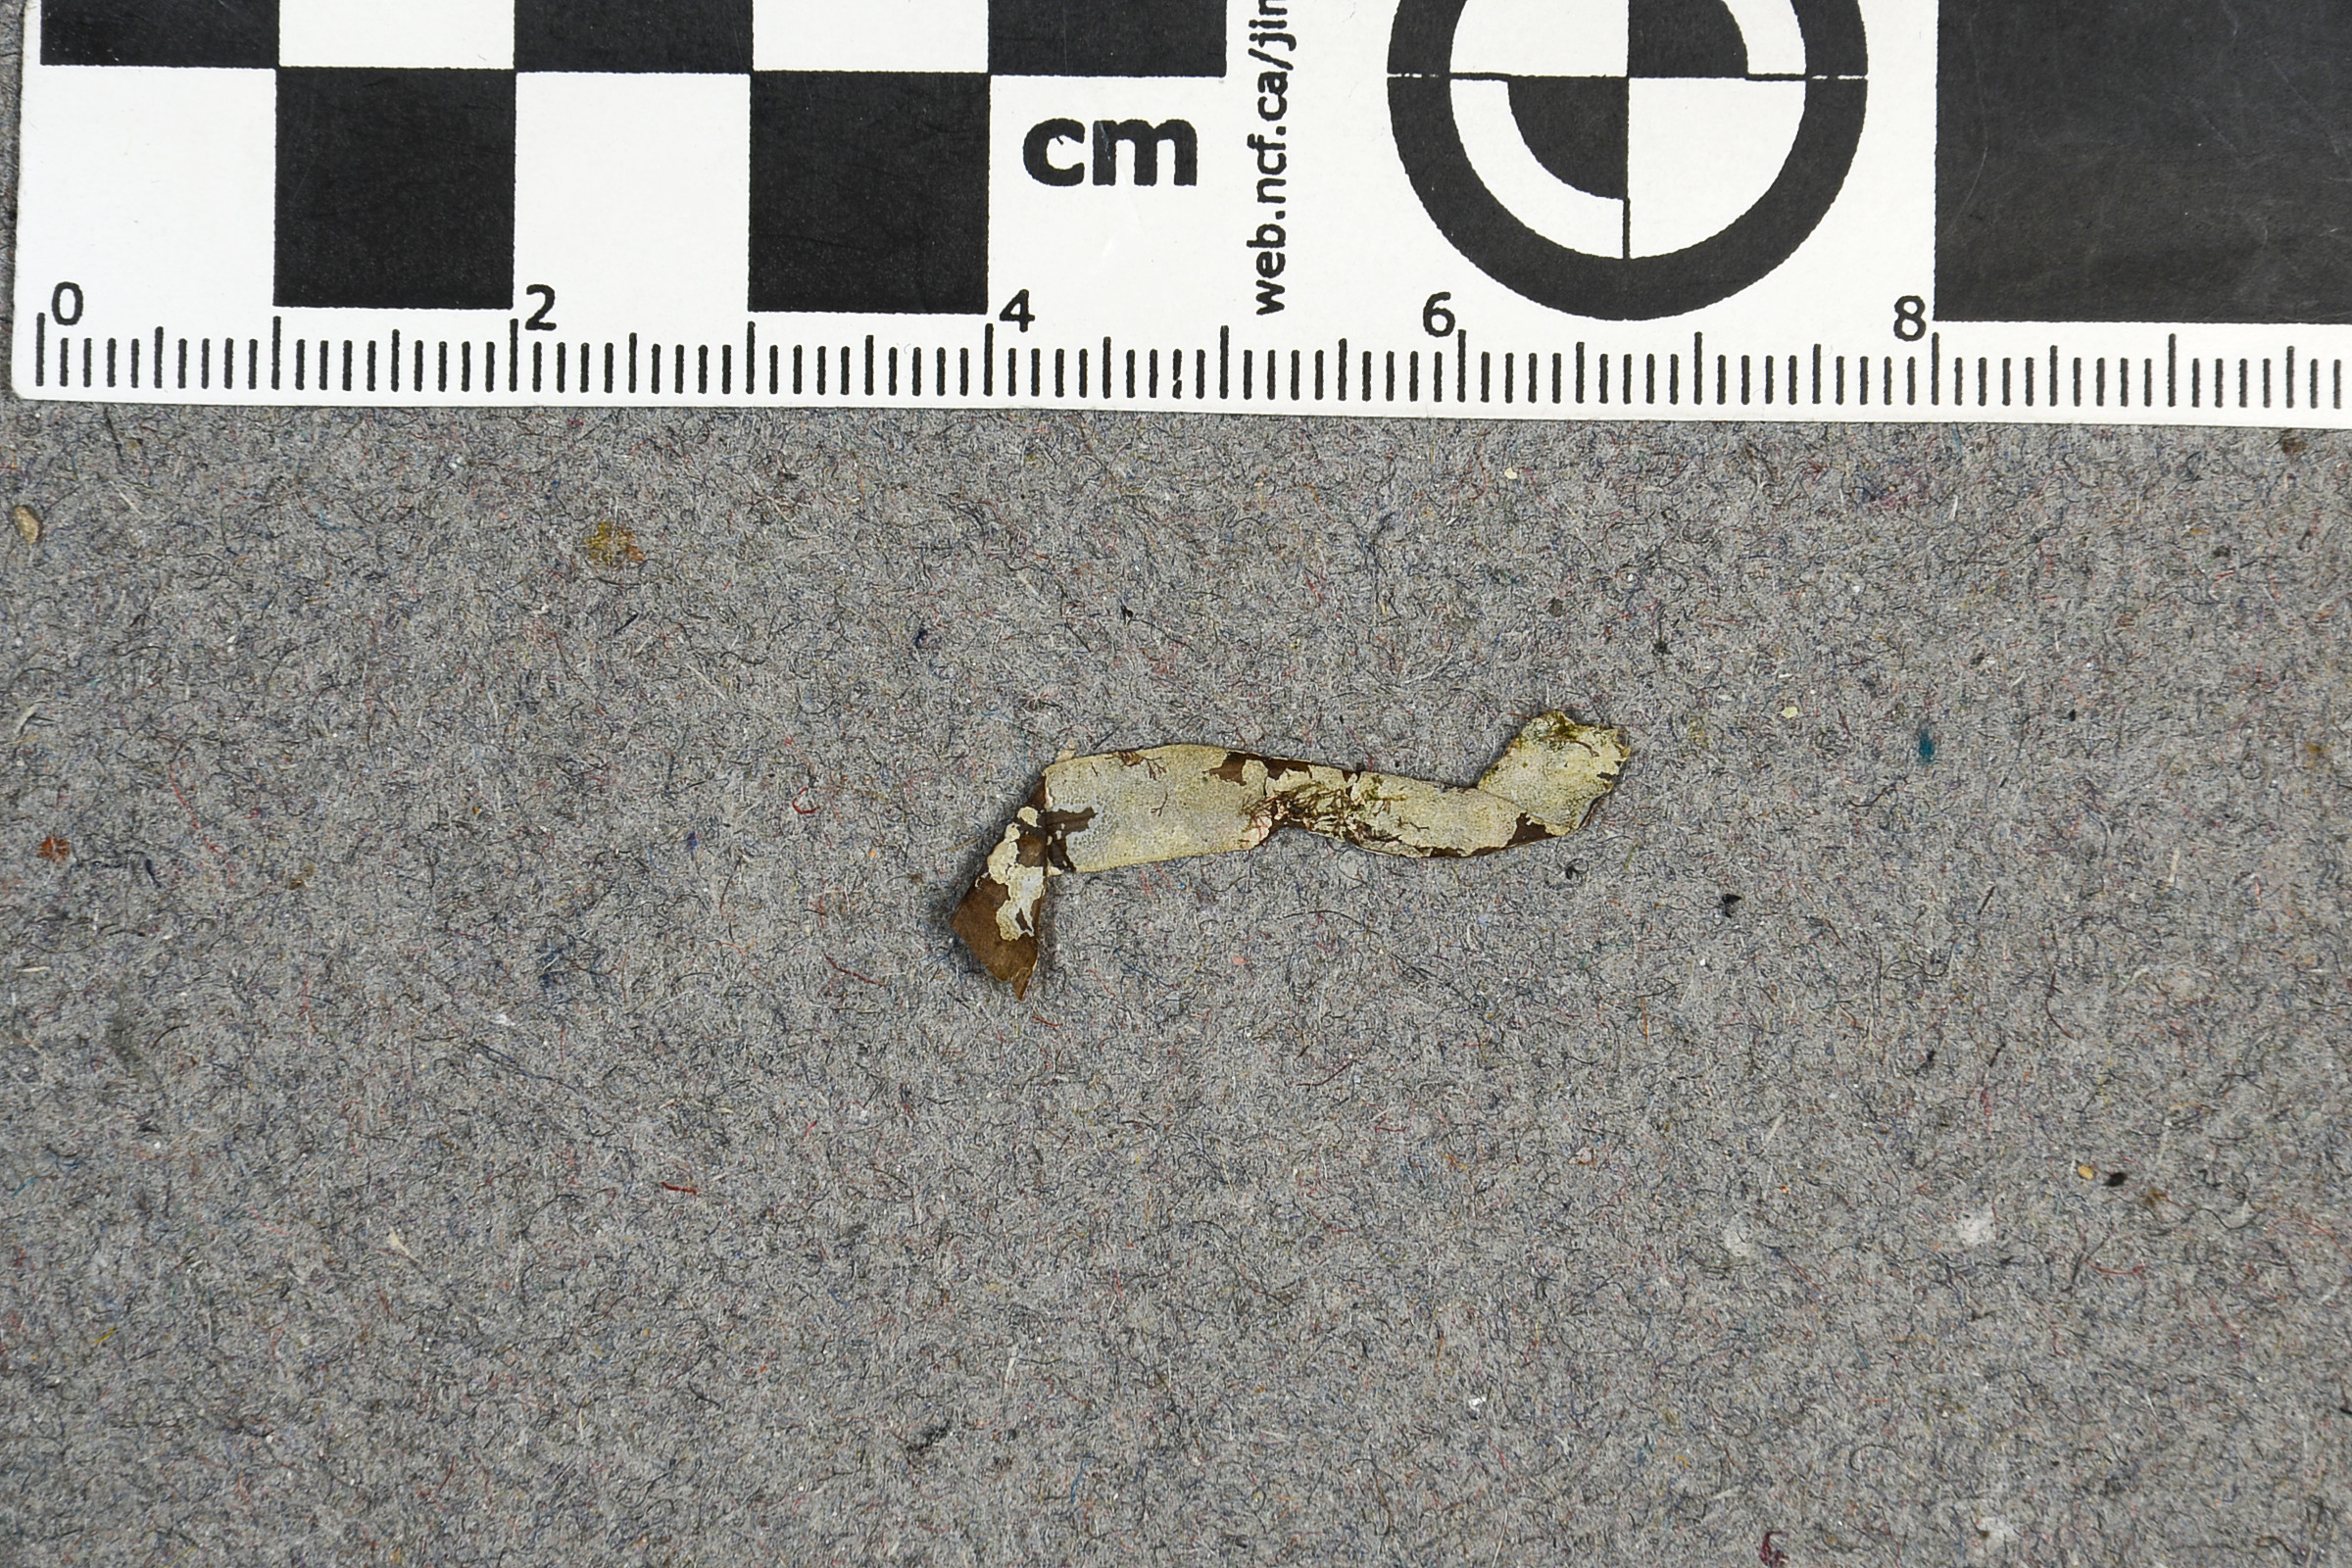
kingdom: Plantae
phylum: Rhodophyta
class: Florideophyceae
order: Corallinales
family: Hydrolithaceae
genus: Hydrolithon
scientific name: Hydrolithon farinosum
